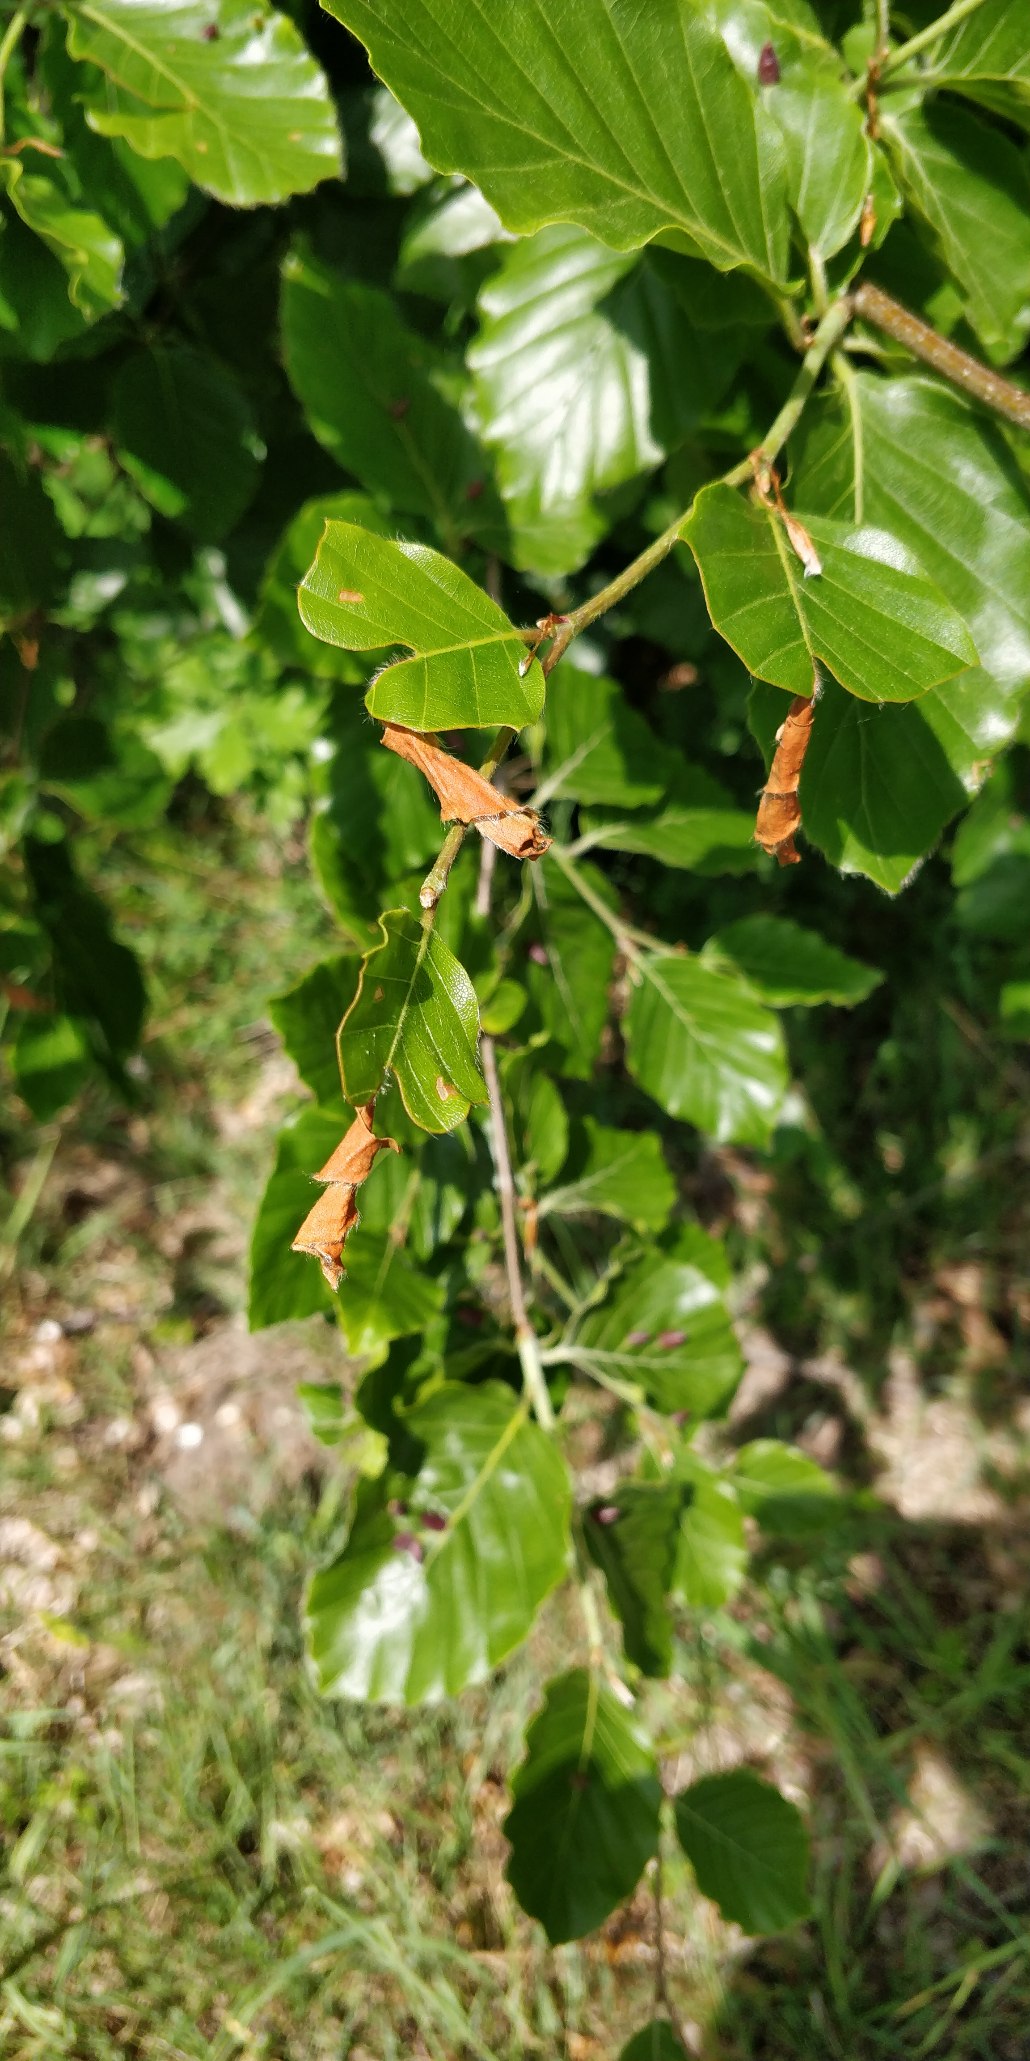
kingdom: Plantae
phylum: Tracheophyta
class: Magnoliopsida
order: Fagales
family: Fagaceae
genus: Fagus
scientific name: Fagus sylvatica
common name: Bøg
